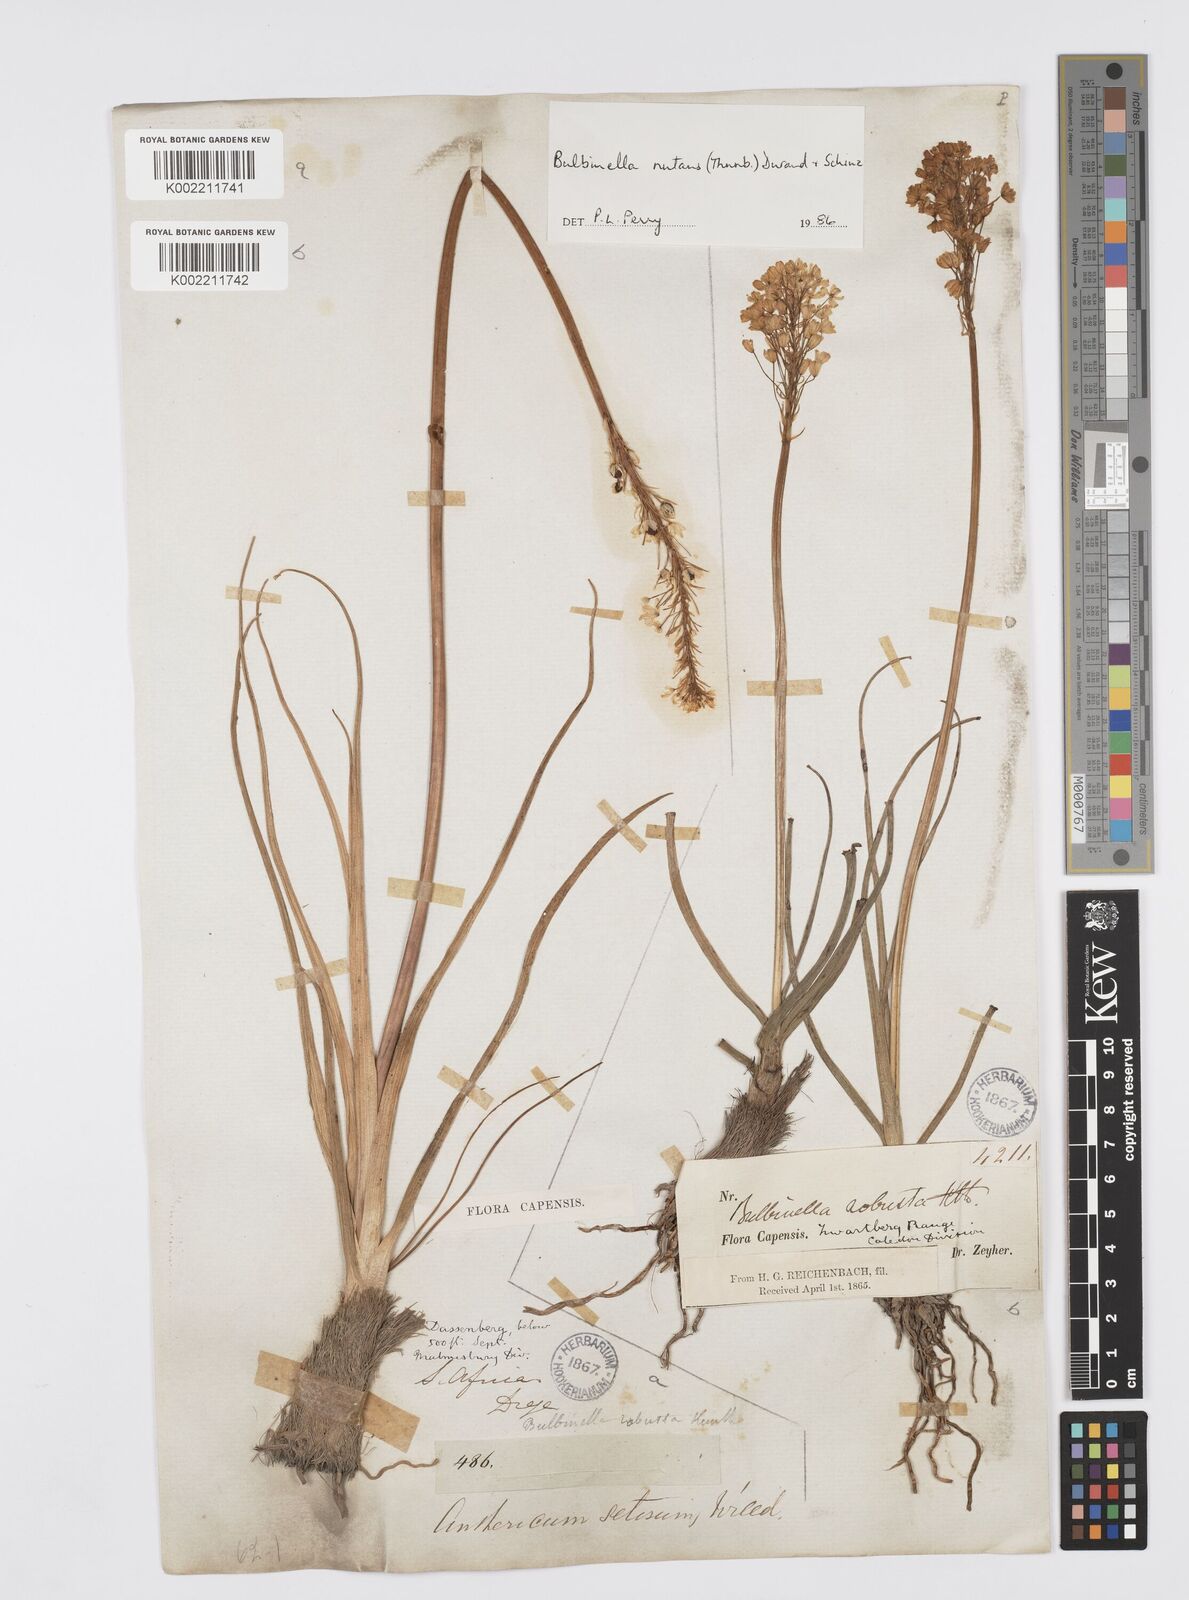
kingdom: Plantae
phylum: Tracheophyta
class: Liliopsida
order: Asparagales
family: Asphodelaceae
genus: Bulbinella
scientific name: Bulbinella nutans
